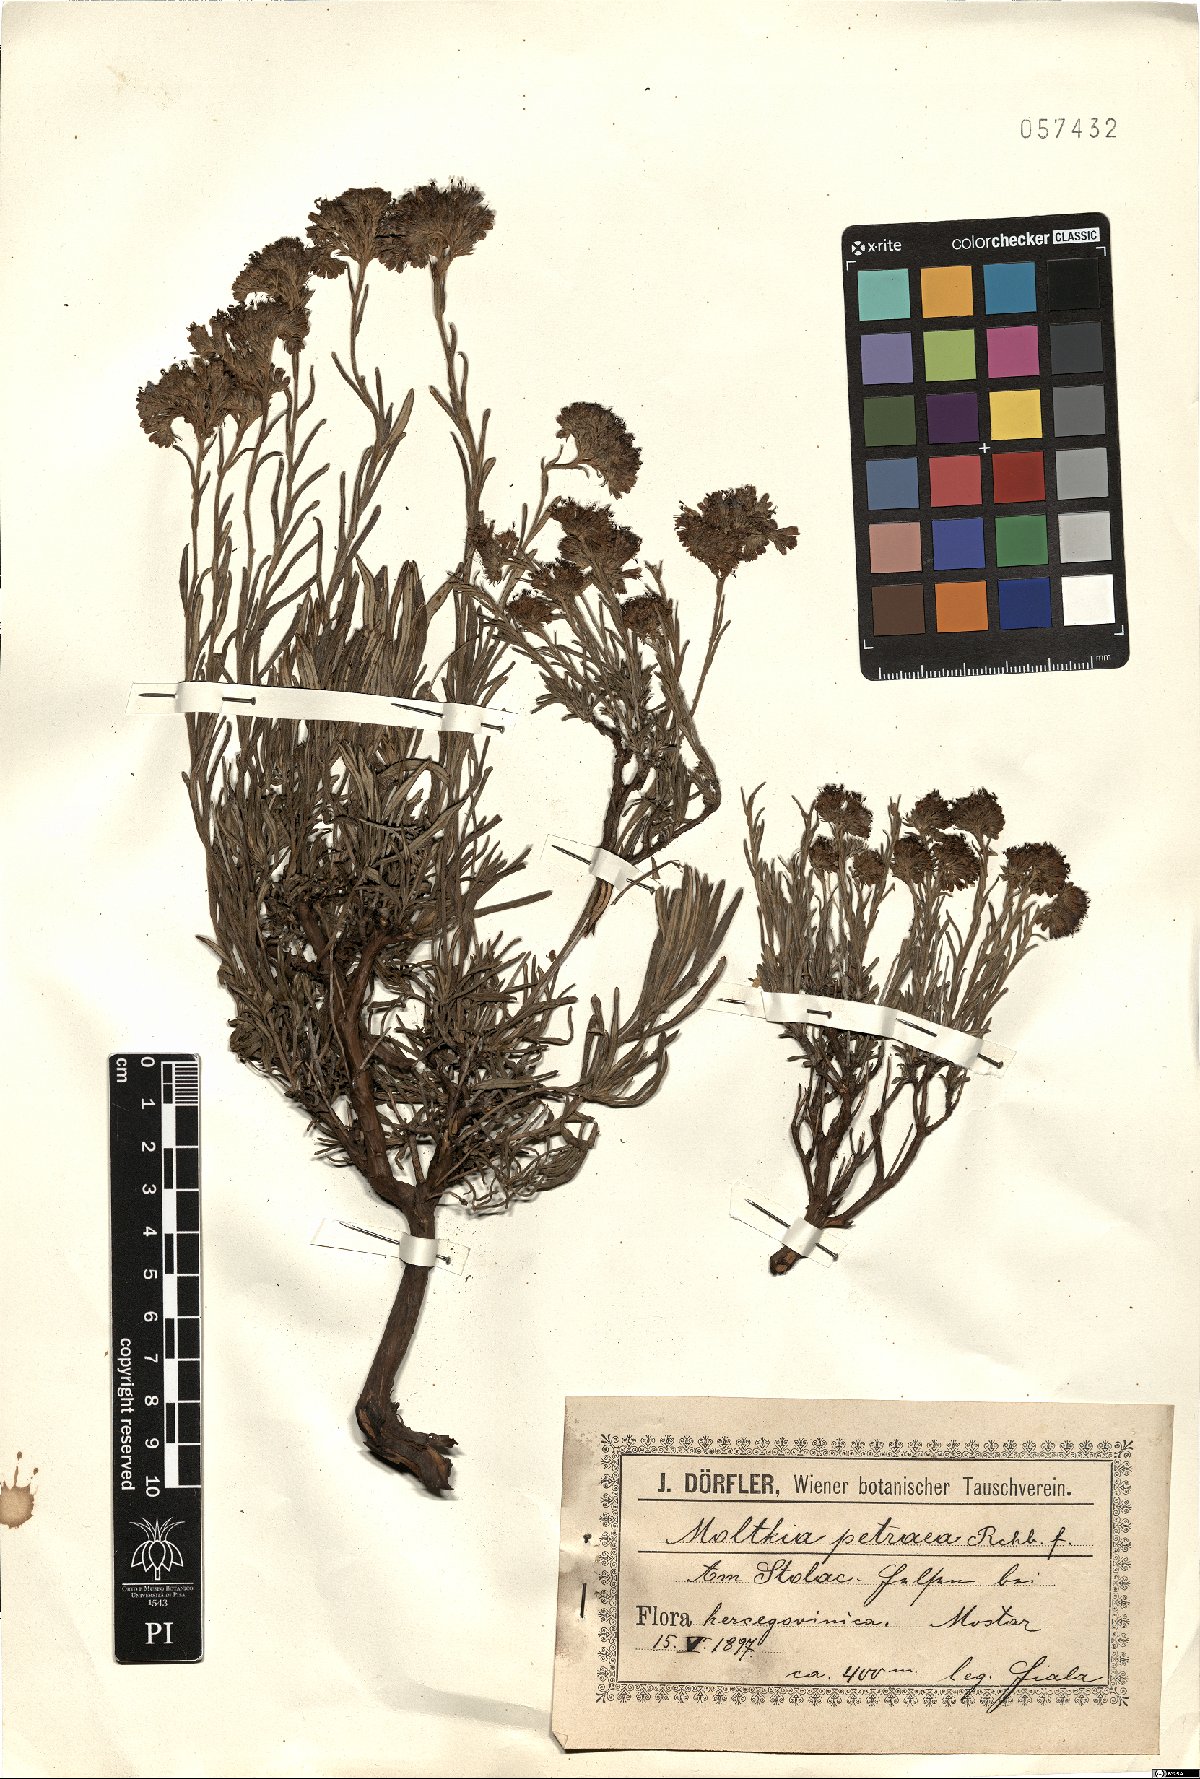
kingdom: Plantae
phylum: Tracheophyta
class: Magnoliopsida
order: Boraginales
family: Boraginaceae
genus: Moltkia
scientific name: Moltkia petraea
